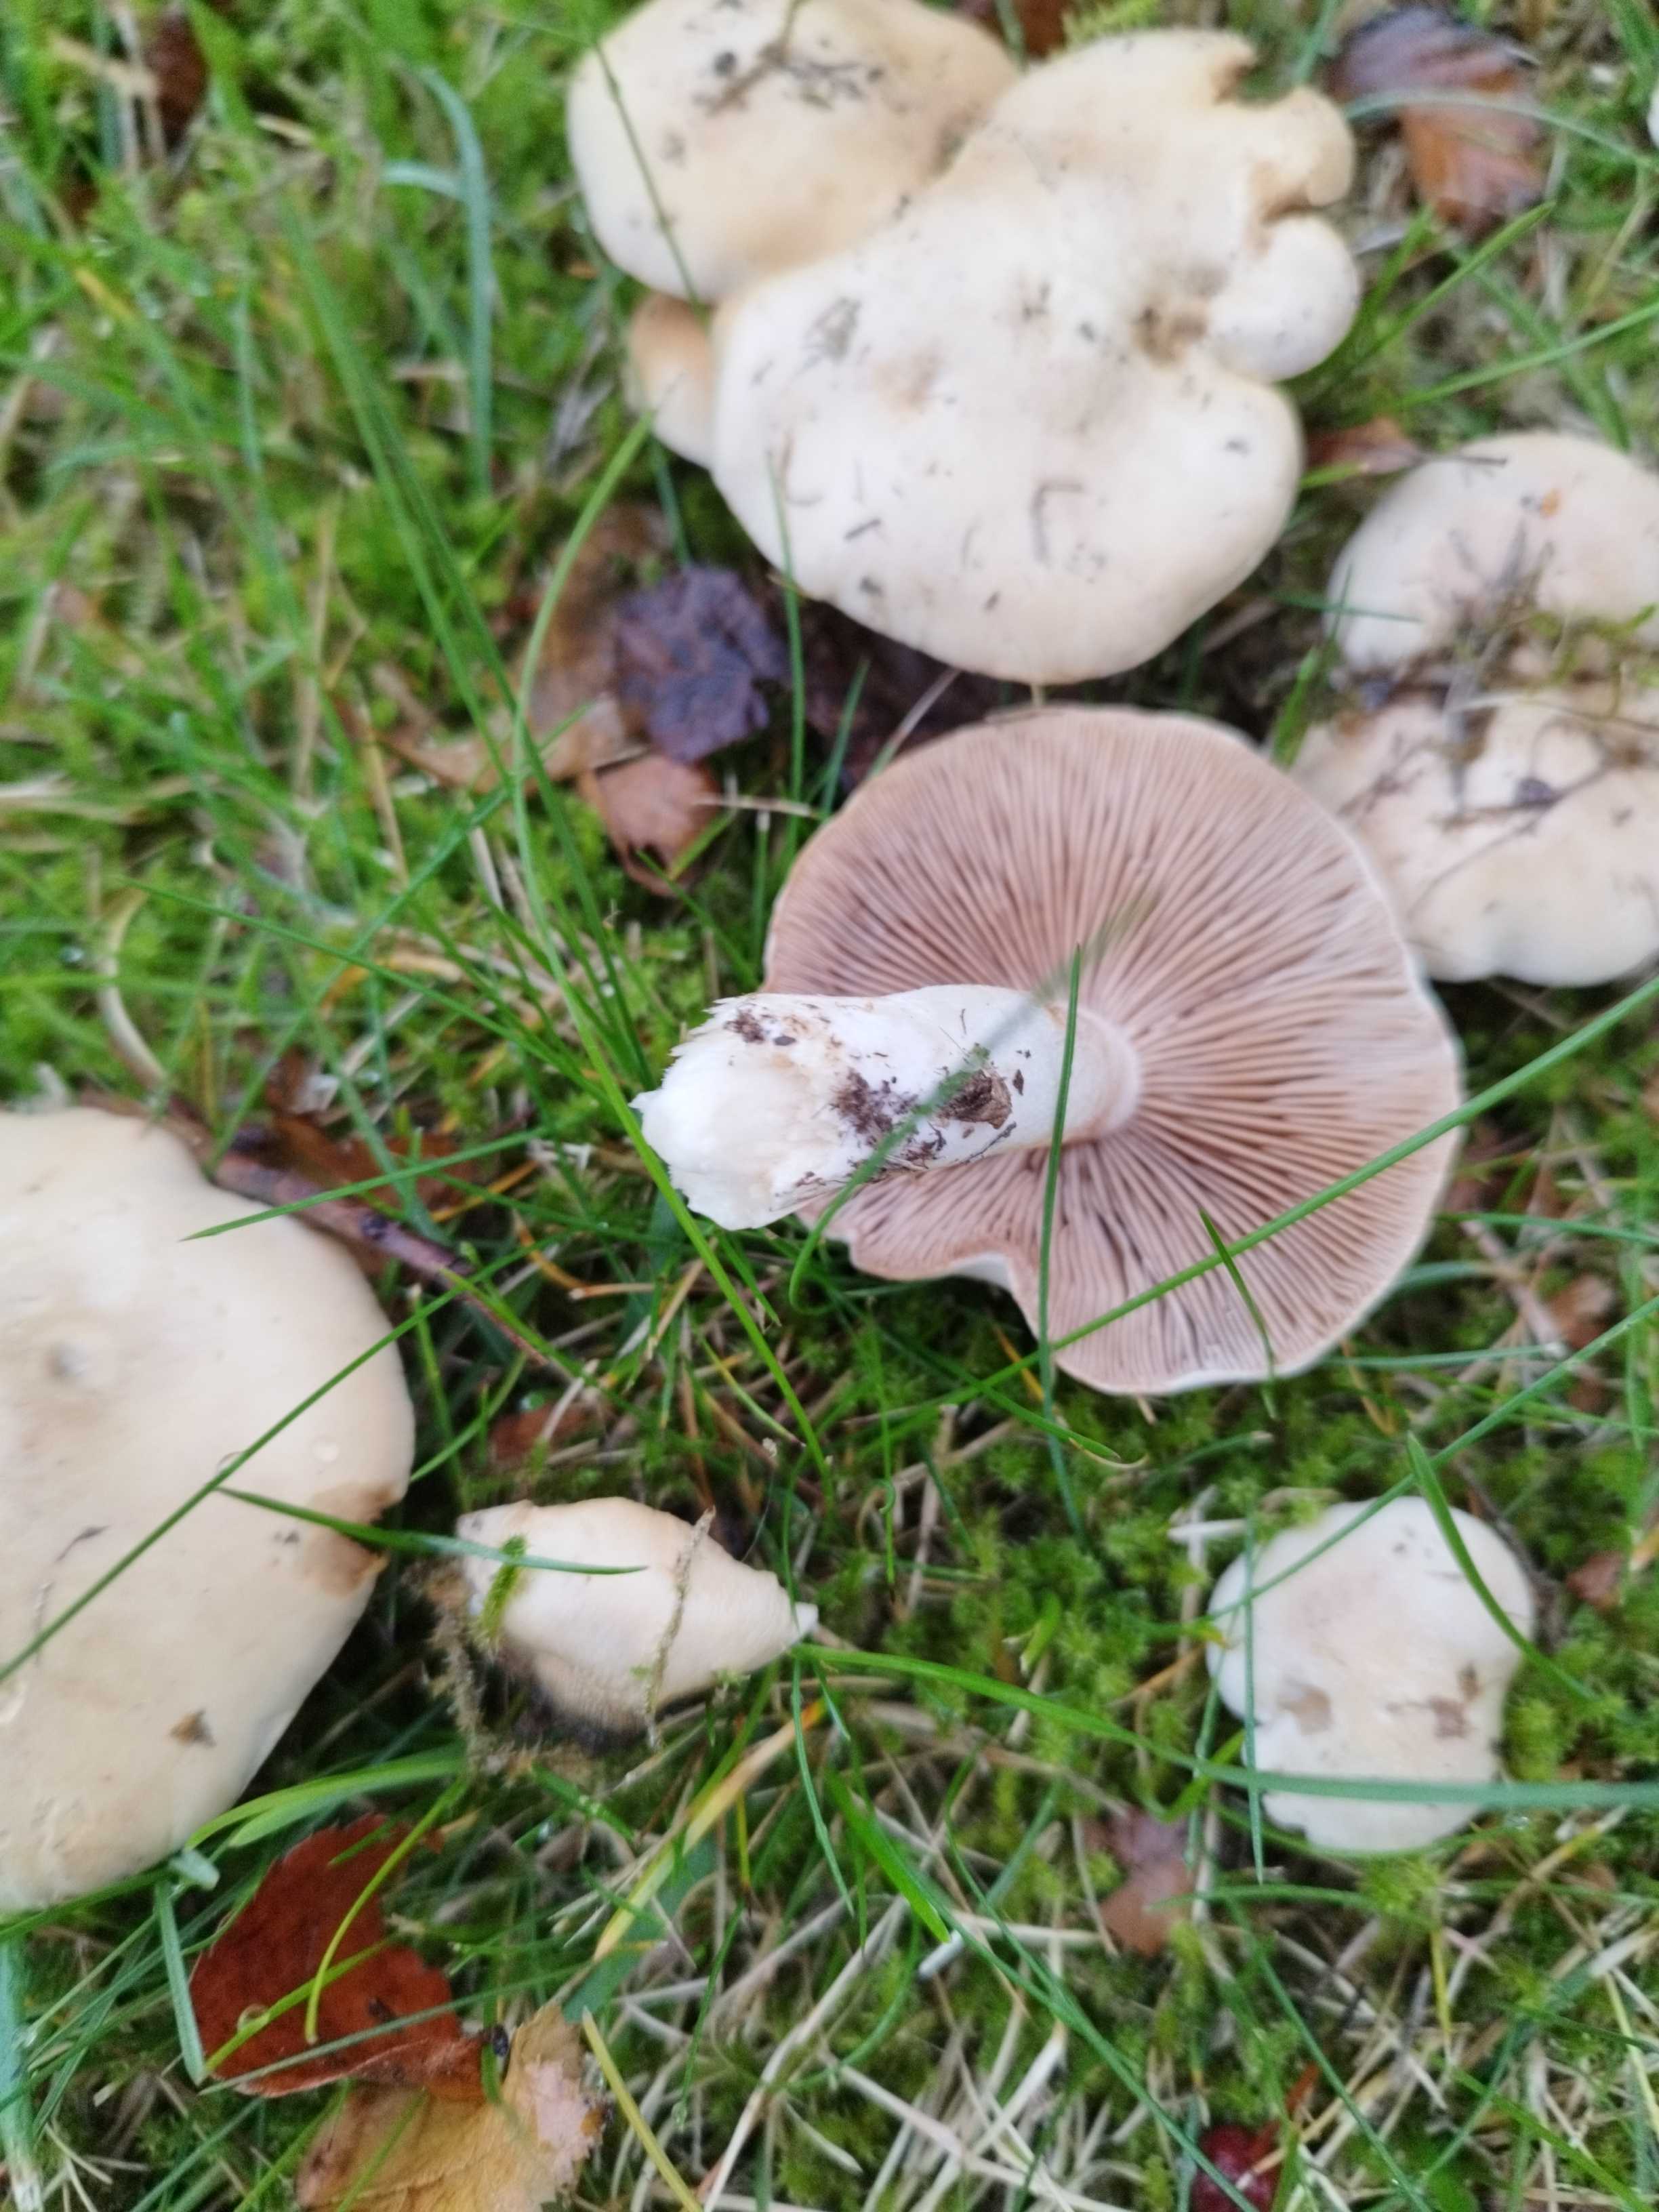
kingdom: Fungi
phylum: Basidiomycota
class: Agaricomycetes
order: Agaricales
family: Hymenogastraceae
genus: Hebeloma
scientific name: Hebeloma
